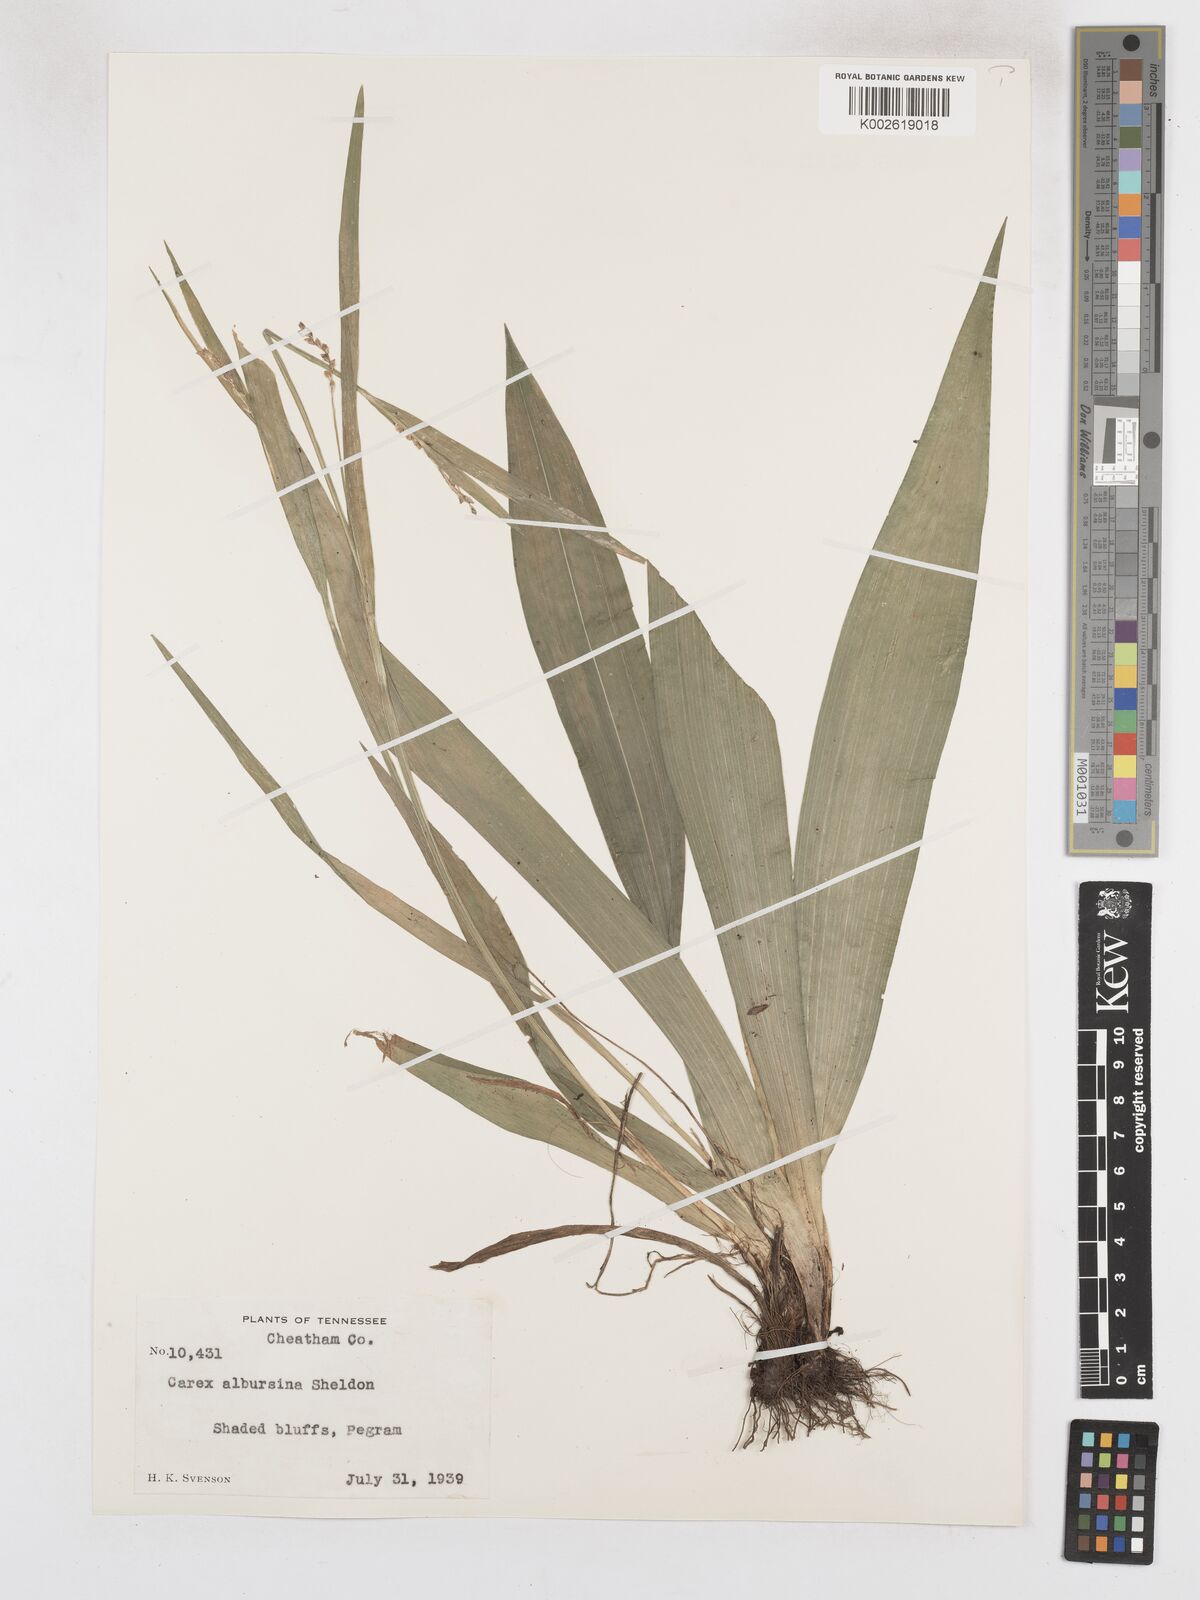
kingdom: Plantae
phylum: Tracheophyta
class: Liliopsida
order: Poales
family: Cyperaceae
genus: Carex
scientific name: Carex albursina
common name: Blunt-scale wood sedge
